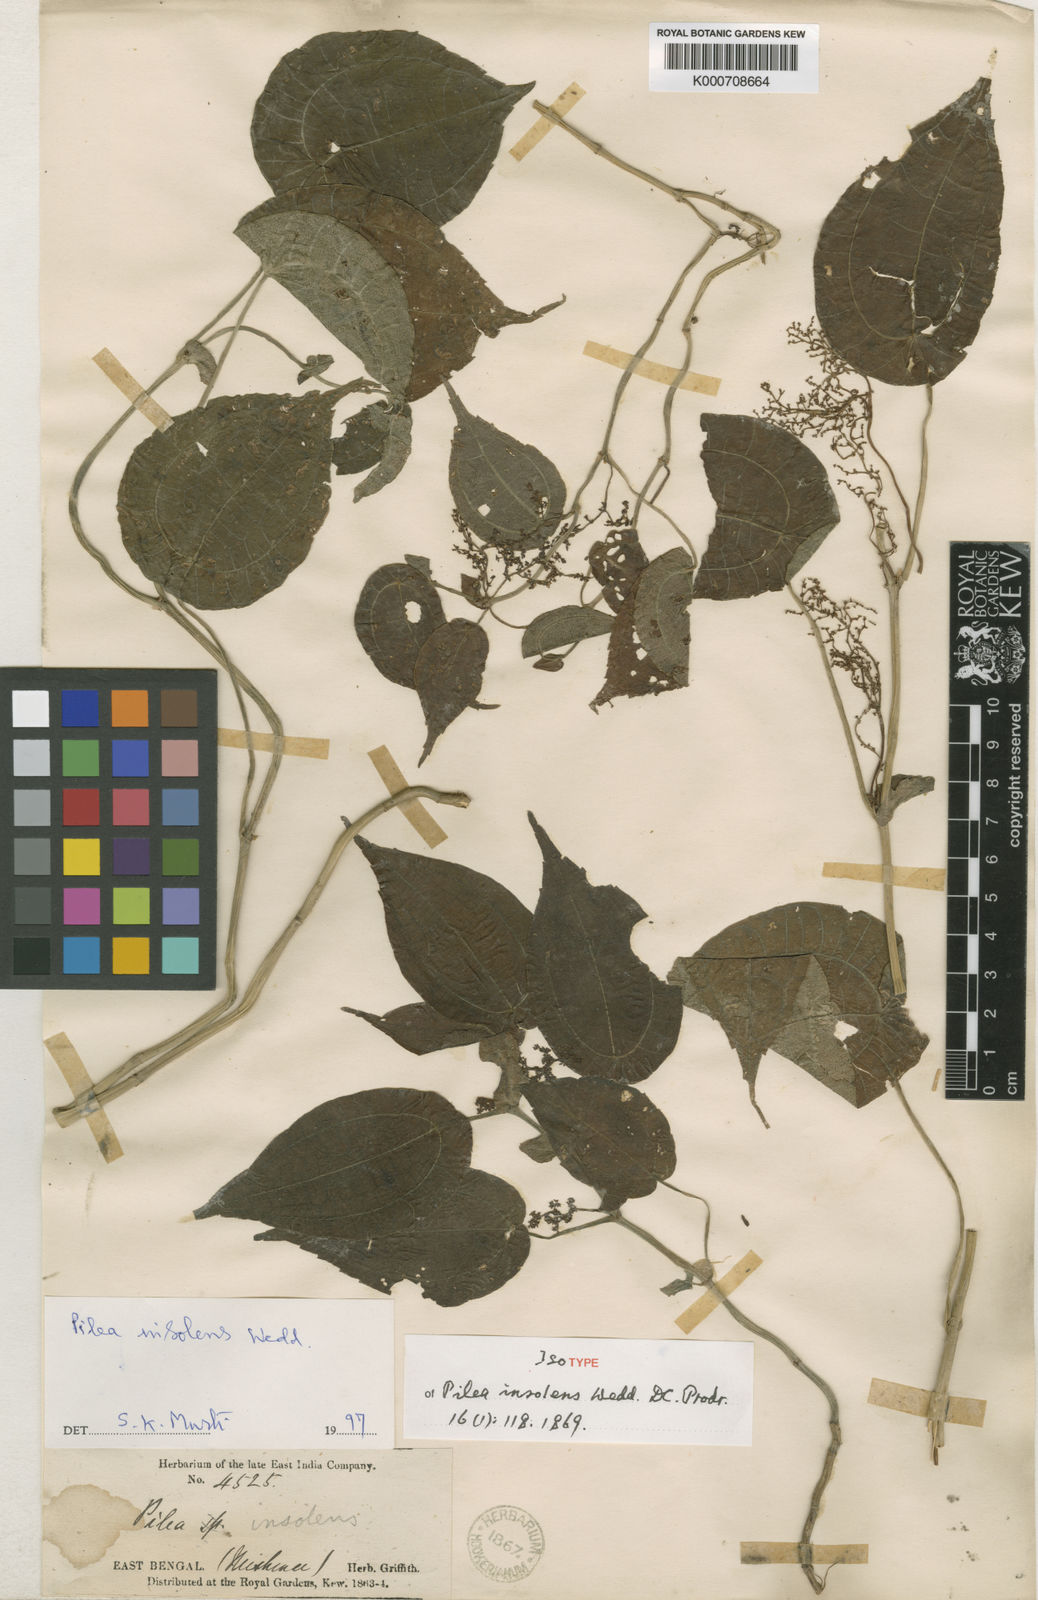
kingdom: Plantae
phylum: Tracheophyta
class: Magnoliopsida
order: Rosales
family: Urticaceae
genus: Pilea
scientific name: Pilea insolens
